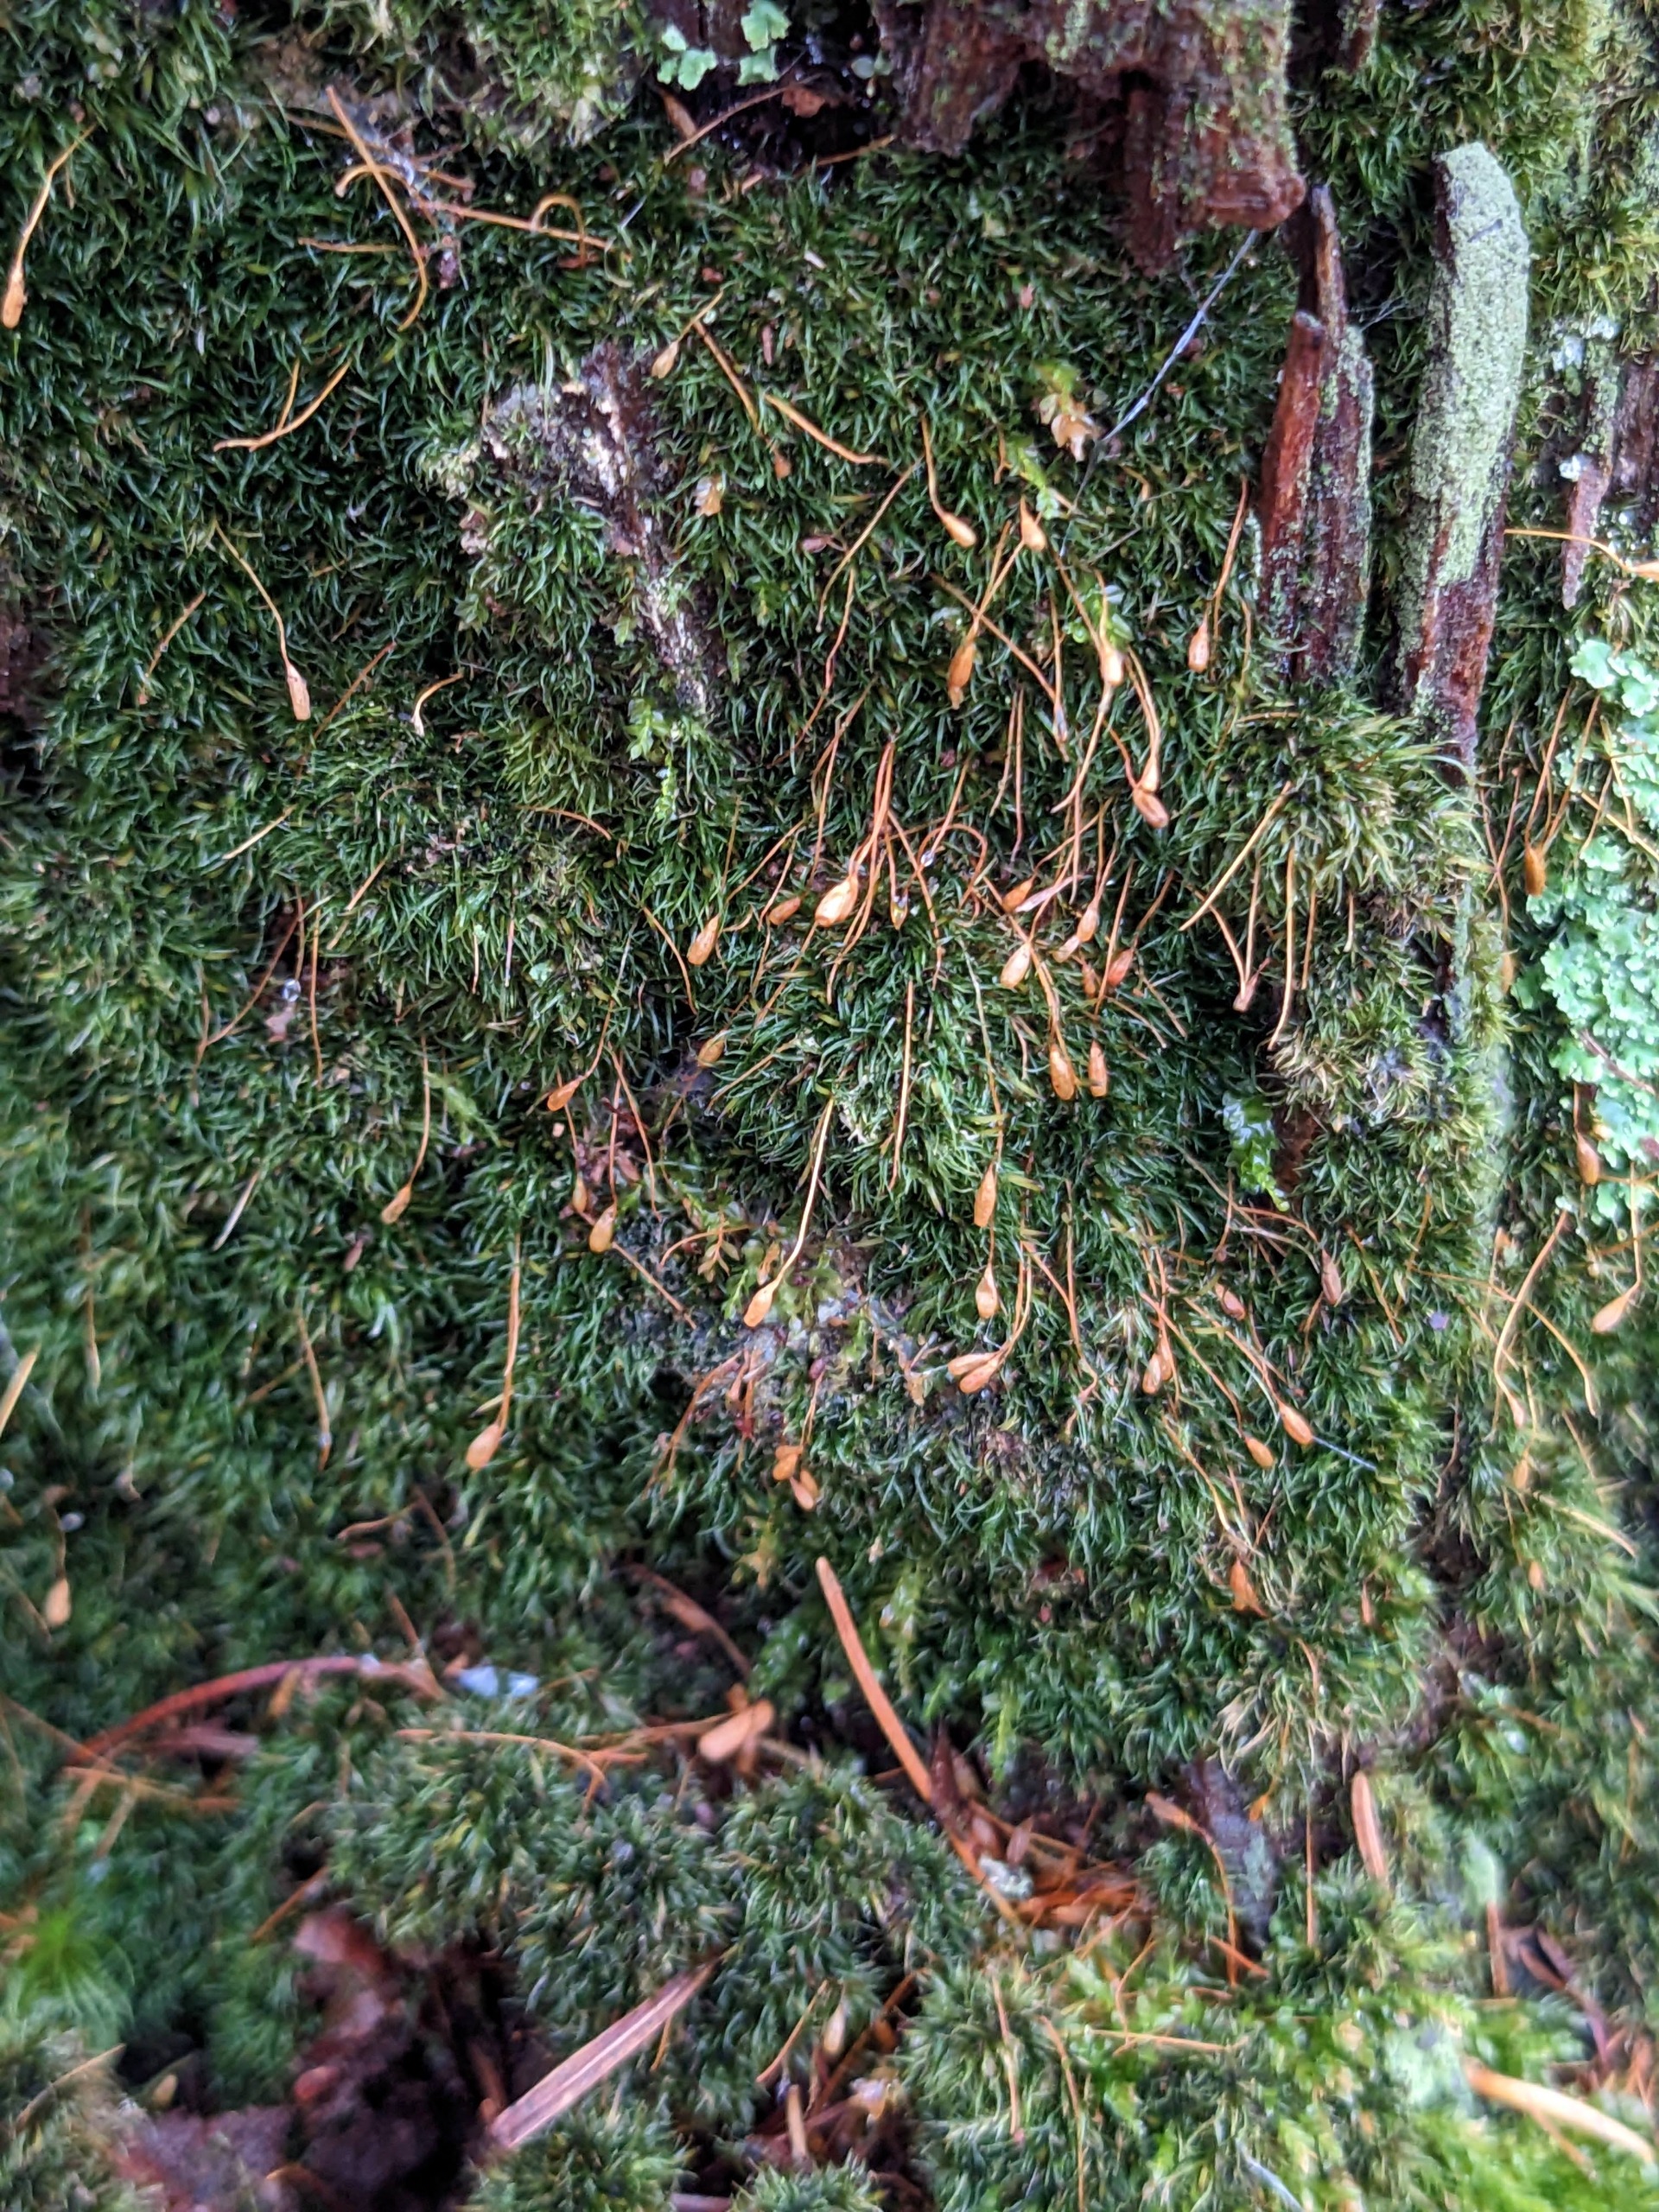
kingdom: Plantae
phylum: Bryophyta
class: Bryopsida
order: Orthodontiales
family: Orthodontiaceae
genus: Orthodontium
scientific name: Orthodontium lineare
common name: Smalbladet plysmos
